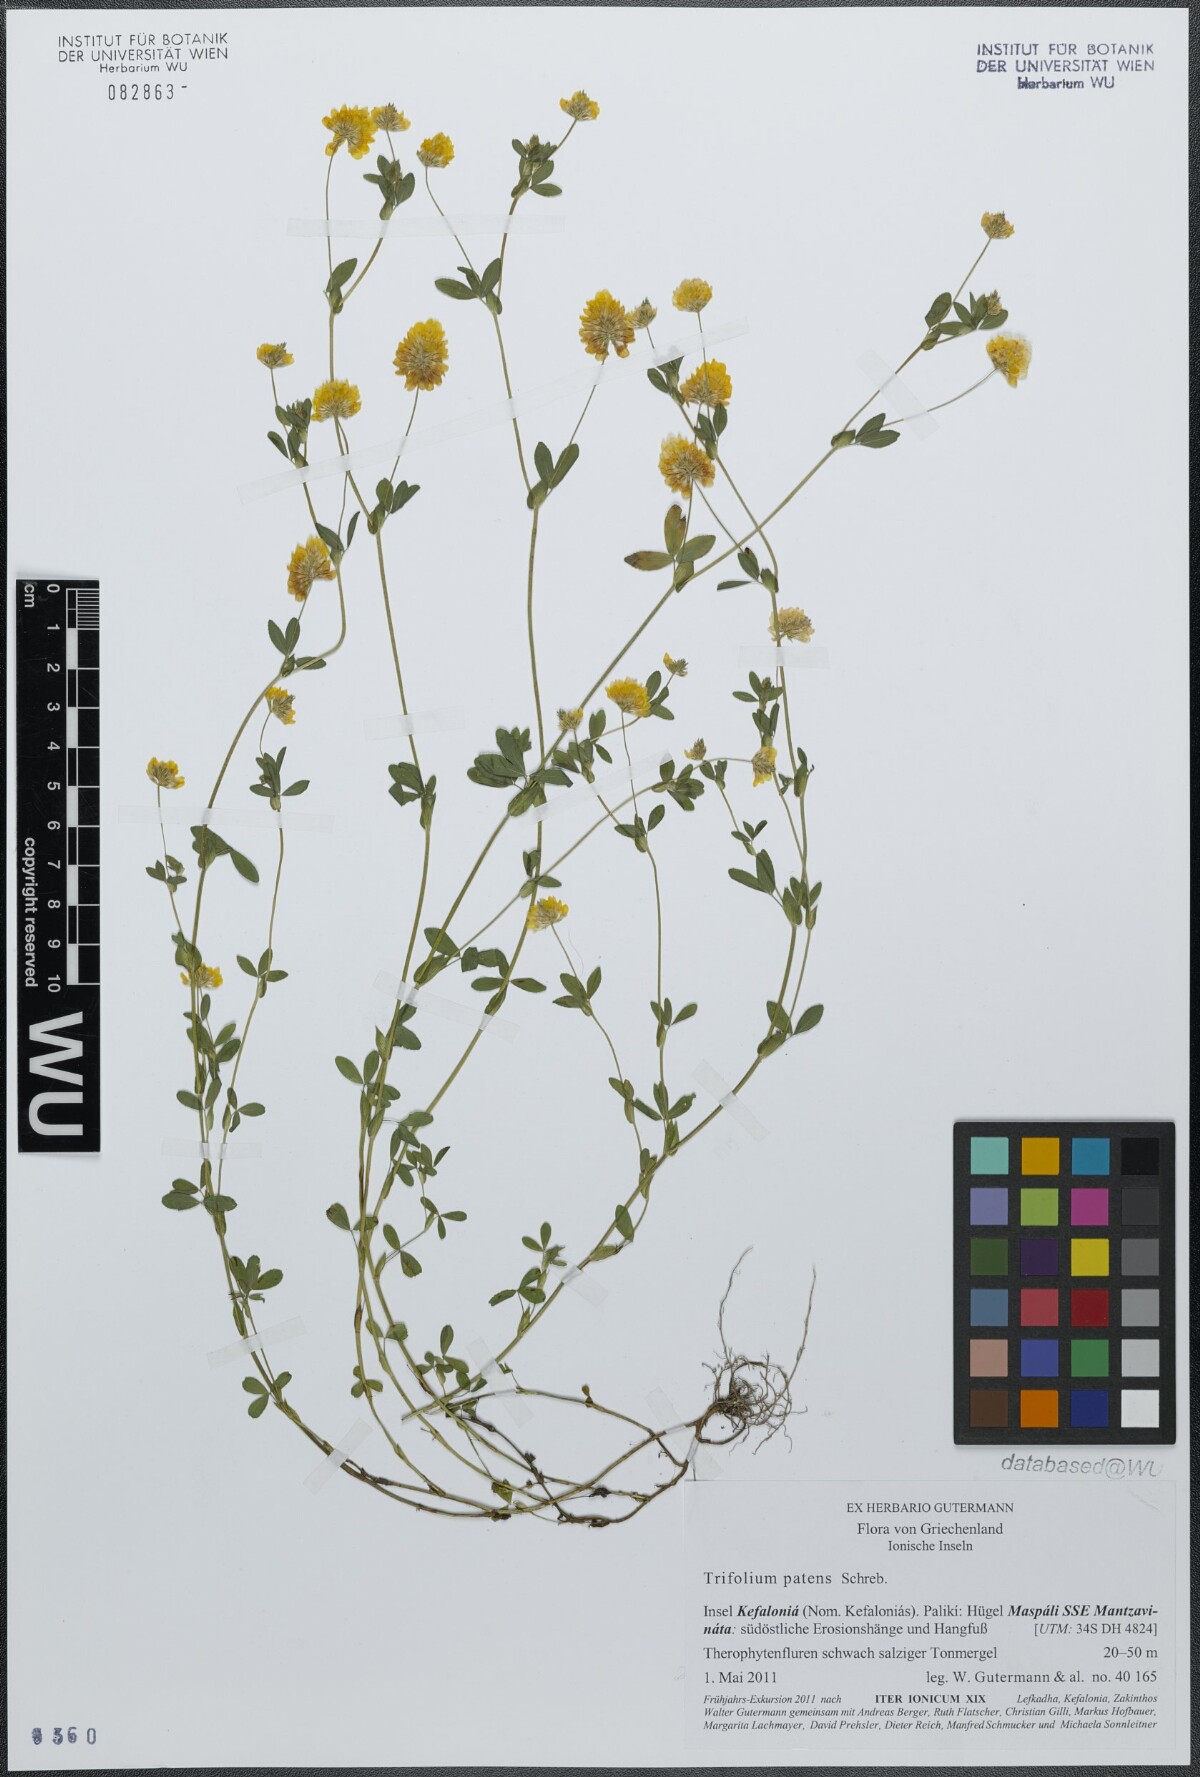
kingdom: Plantae
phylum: Tracheophyta
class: Magnoliopsida
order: Fabales
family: Fabaceae
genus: Trifolium
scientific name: Trifolium patens
